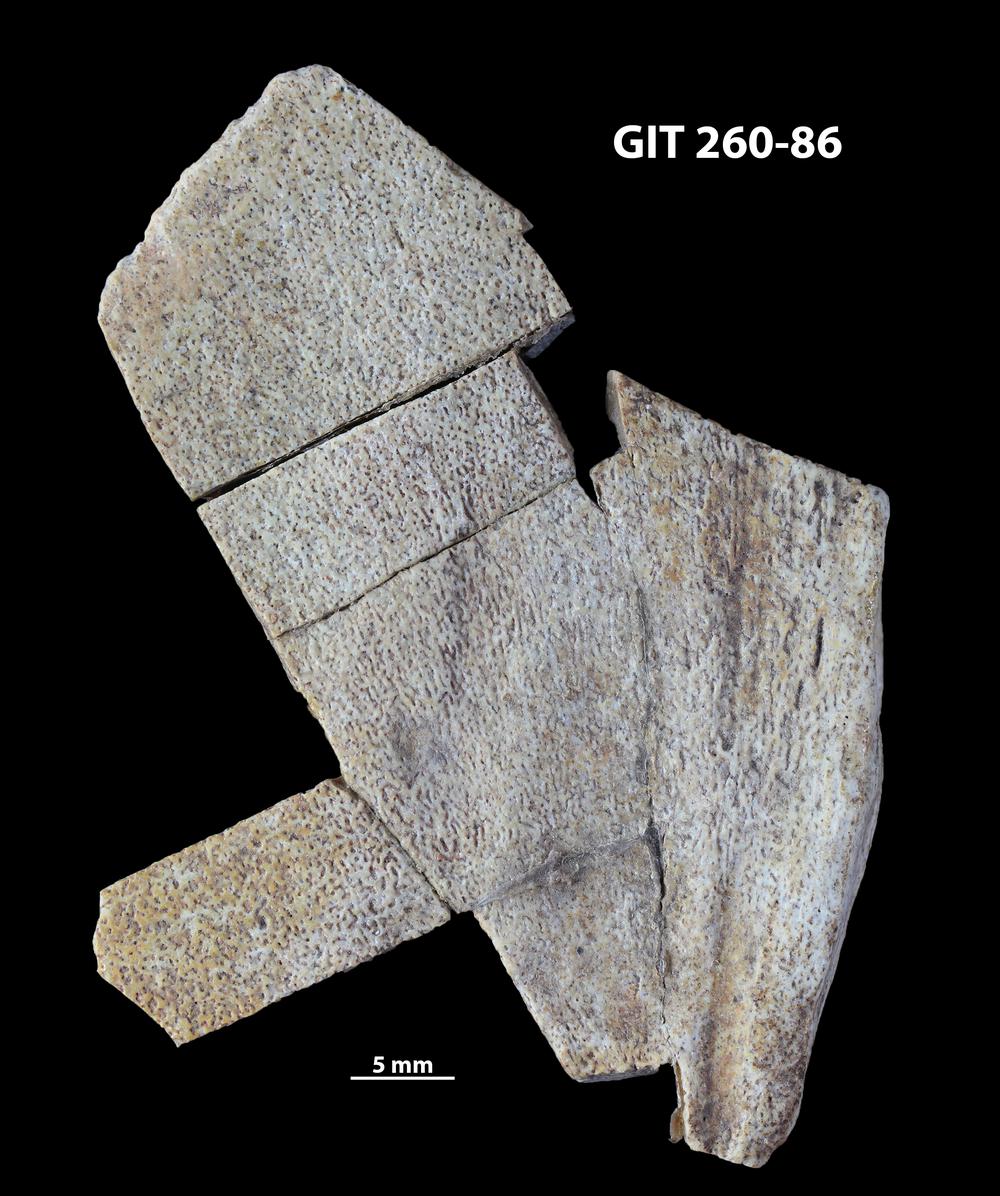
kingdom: Animalia
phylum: Chordata
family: Homostiidae
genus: Homostius
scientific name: Homostius
